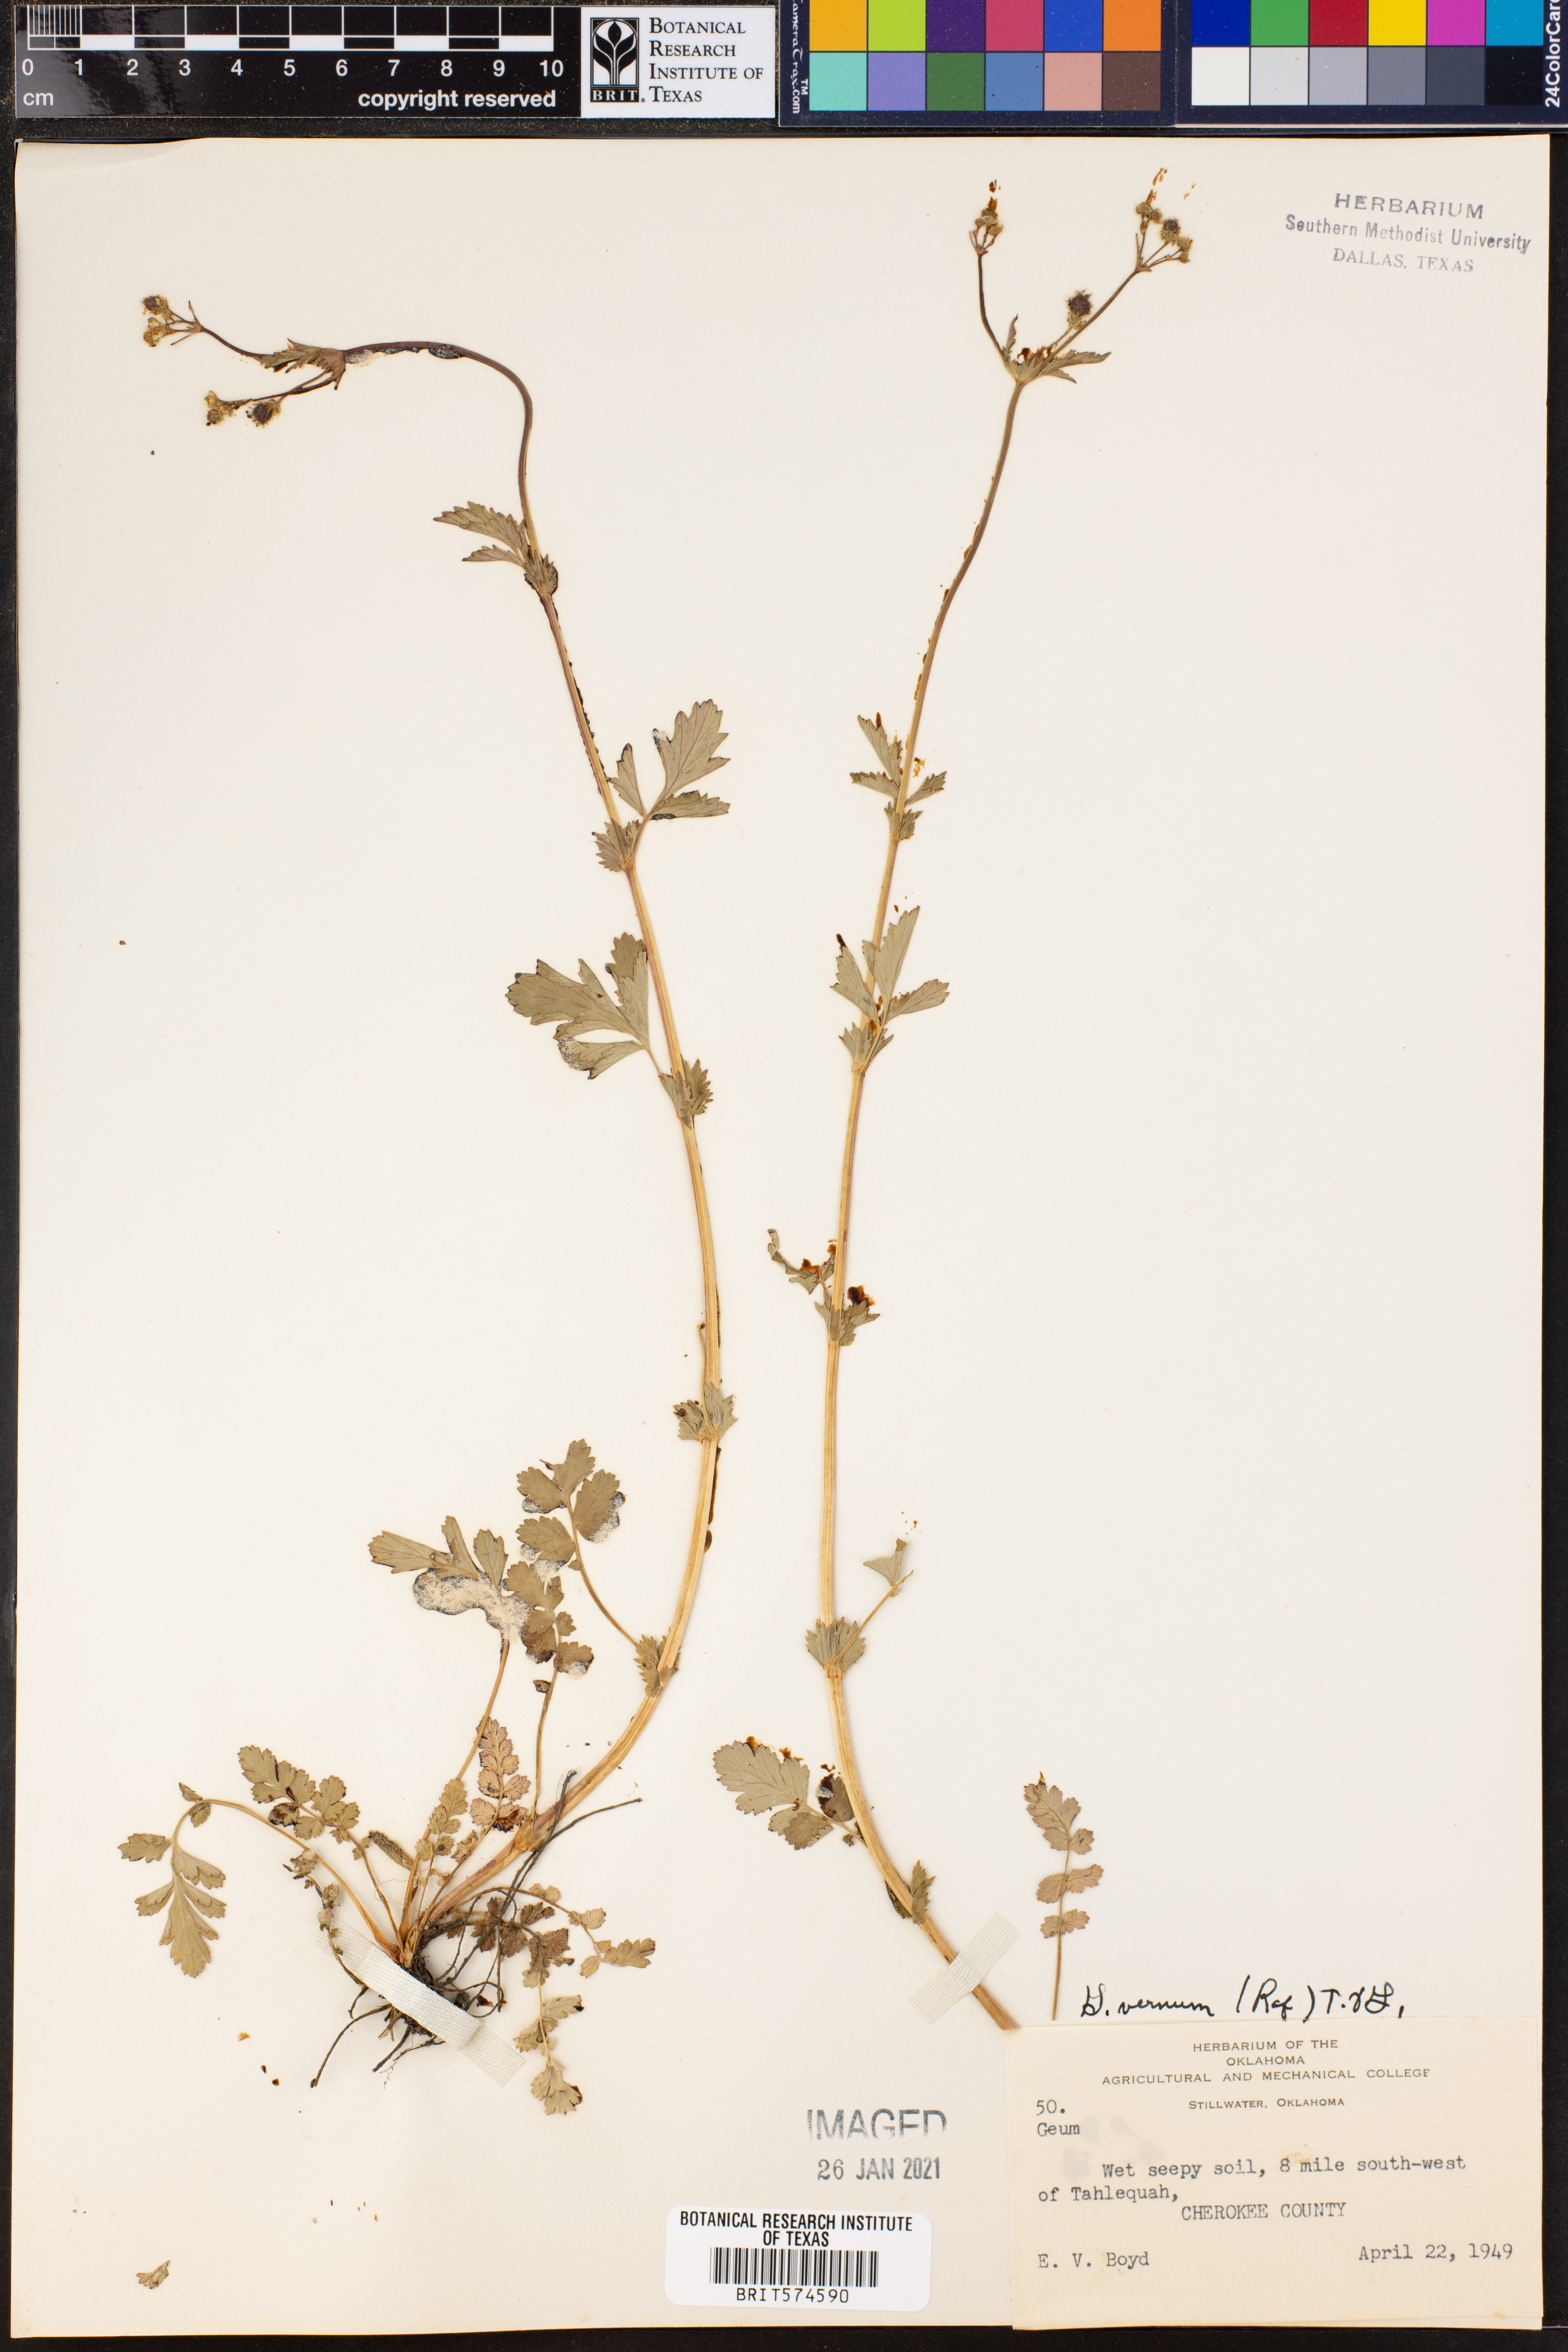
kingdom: Plantae
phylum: Tracheophyta
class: Magnoliopsida
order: Rosales
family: Rosaceae
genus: Geum
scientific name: Geum vernum
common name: Spring avens
